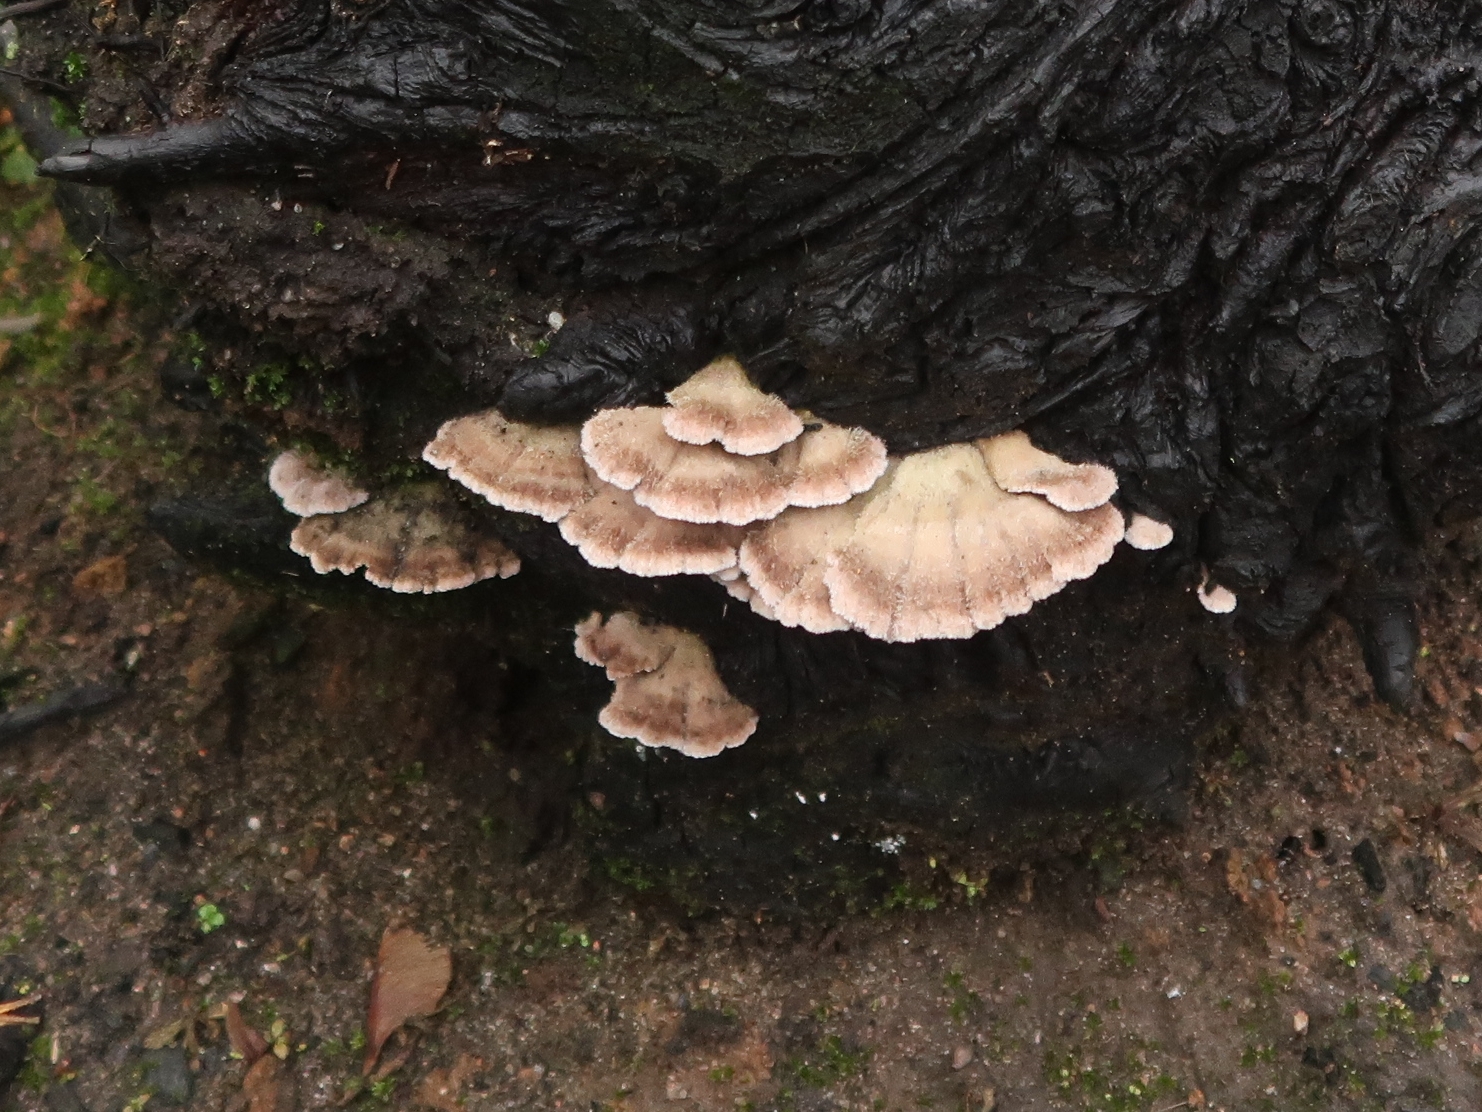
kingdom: Fungi
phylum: Basidiomycota
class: Agaricomycetes
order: Agaricales
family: Schizophyllaceae
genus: Schizophyllum
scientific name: Schizophyllum commune
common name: kløvblad
